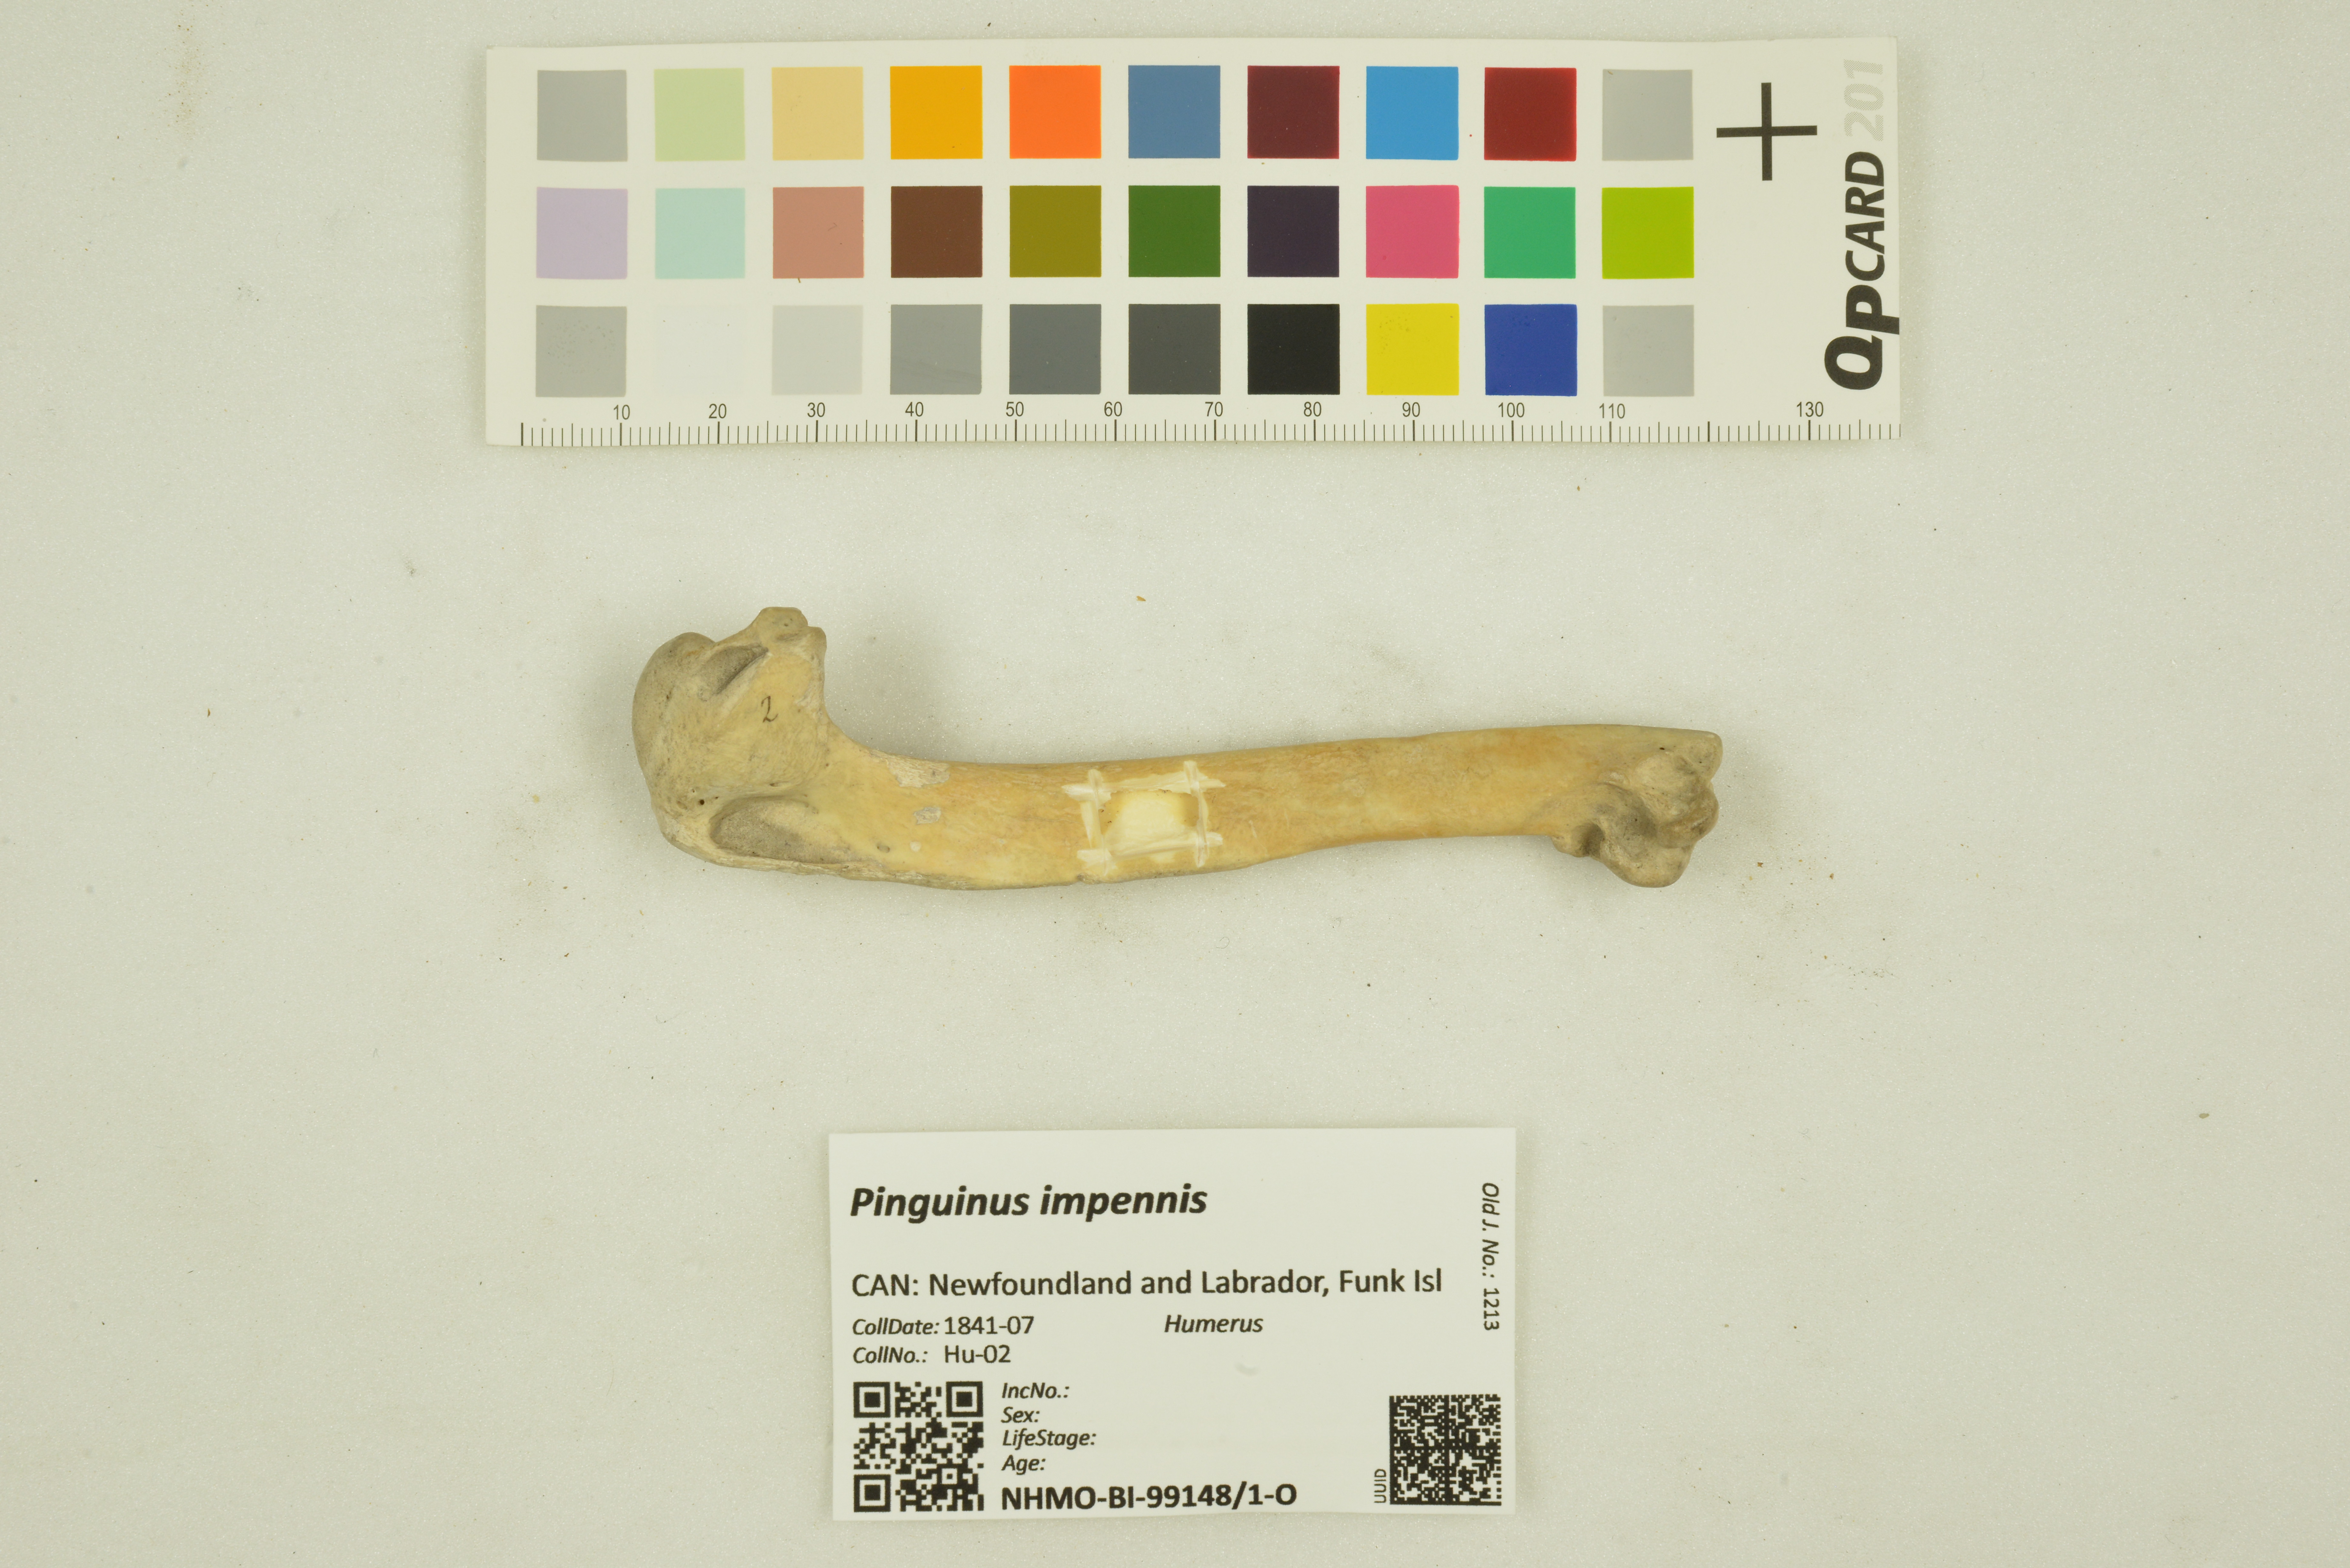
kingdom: Animalia
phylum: Chordata
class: Aves
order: Charadriiformes
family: Alcidae
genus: Pinguinus
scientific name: Pinguinus impennis
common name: Great auk
